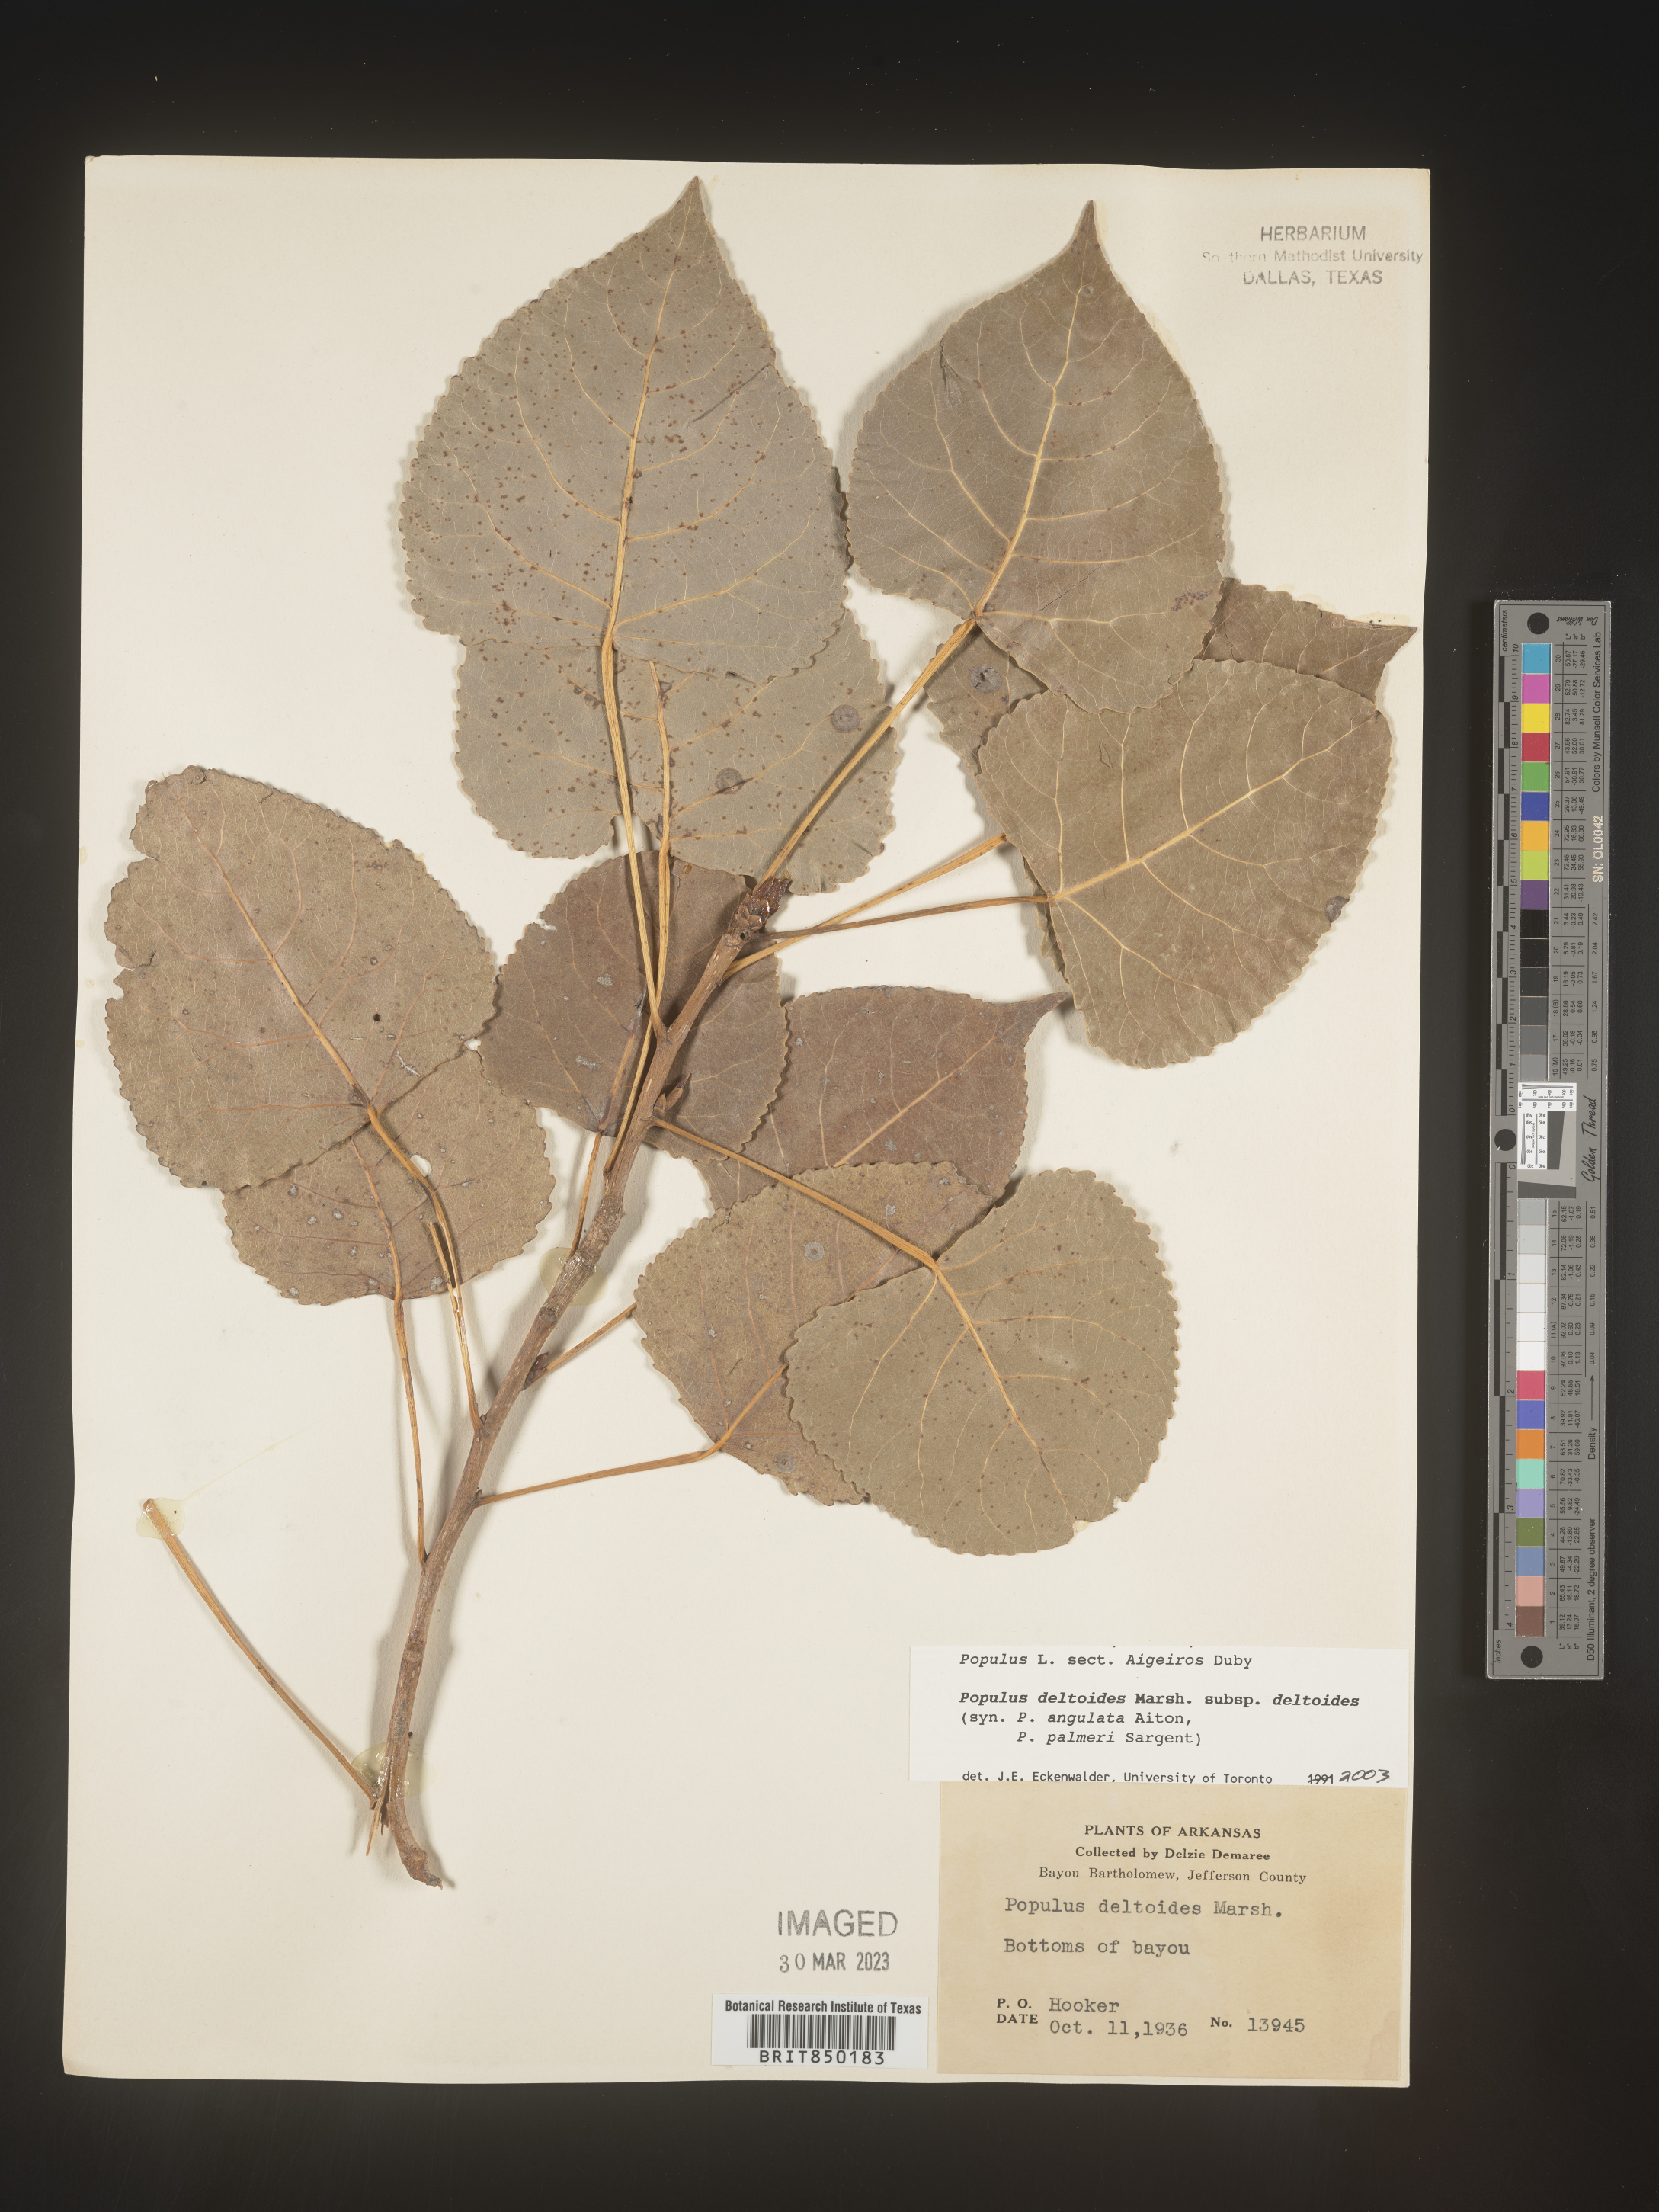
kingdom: Plantae
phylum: Tracheophyta
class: Magnoliopsida
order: Malpighiales
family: Salicaceae
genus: Populus
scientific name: Populus deltoides
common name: Eastern cottonwood
